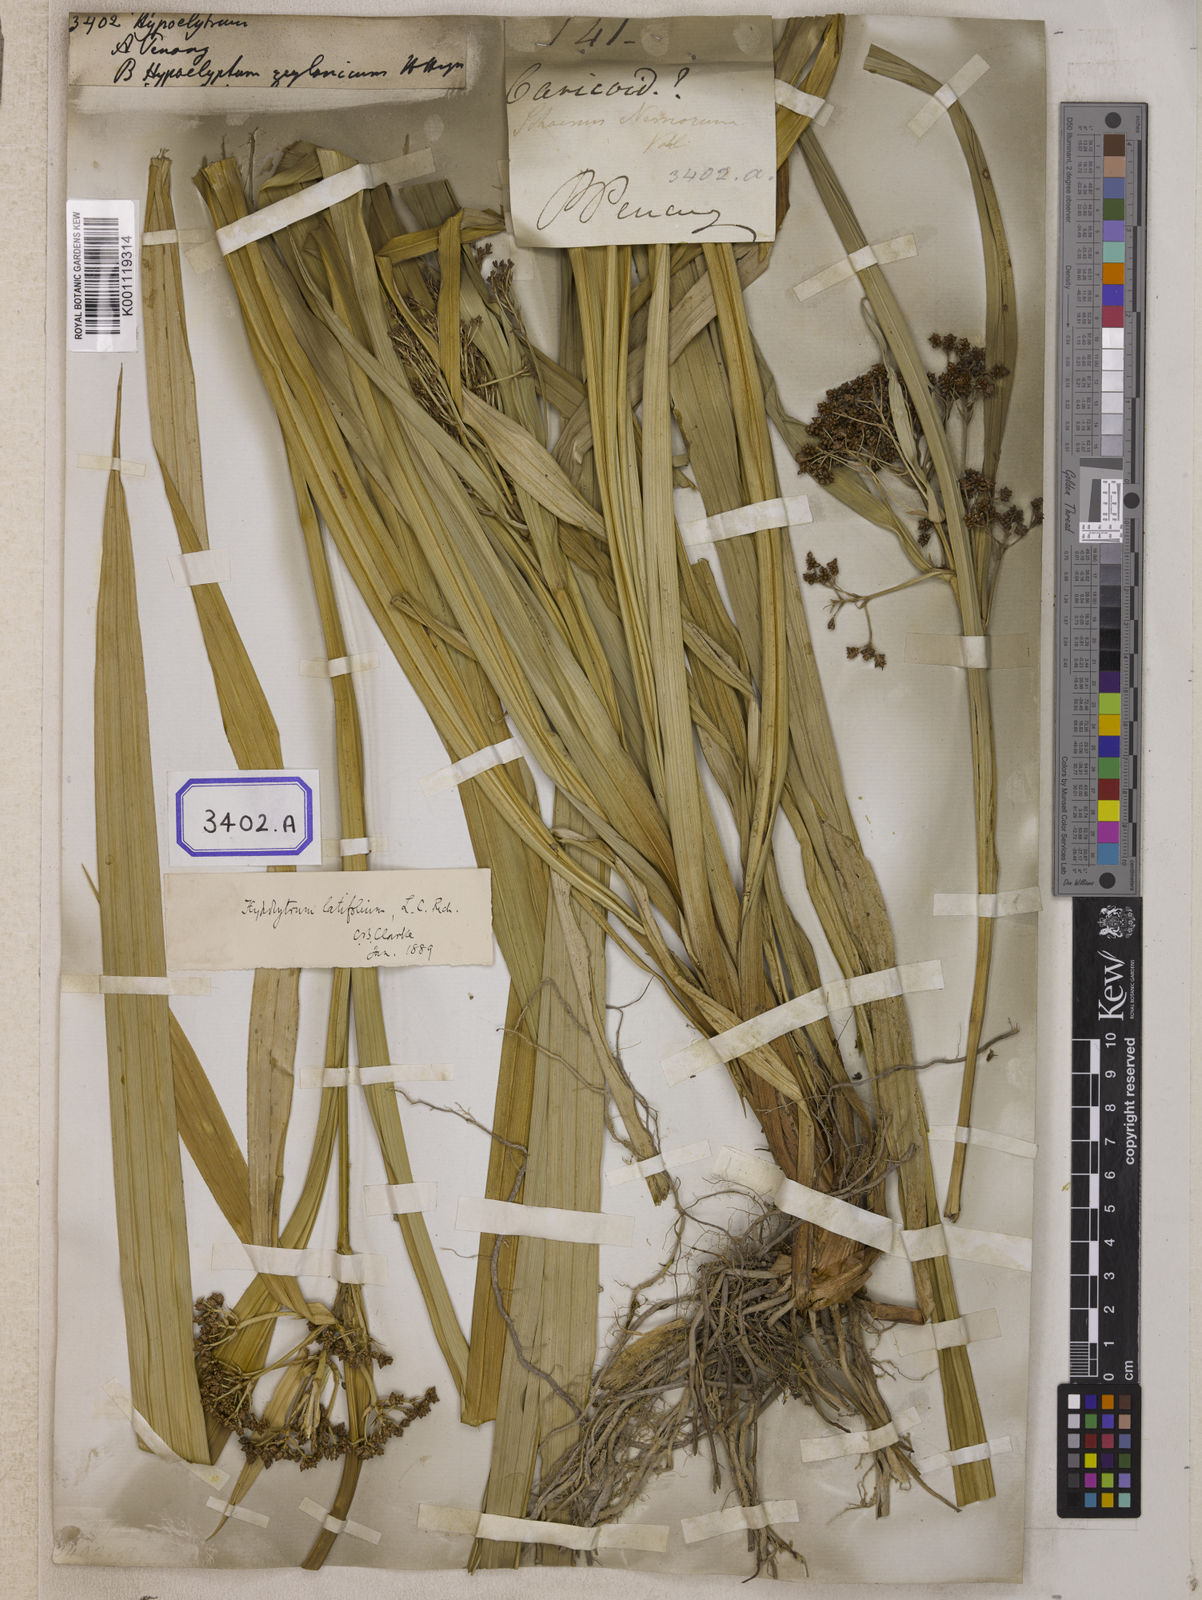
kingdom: Plantae
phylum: Tracheophyta
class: Liliopsida
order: Poales
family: Cyperaceae
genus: Hypolytrum
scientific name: Hypolytrum
